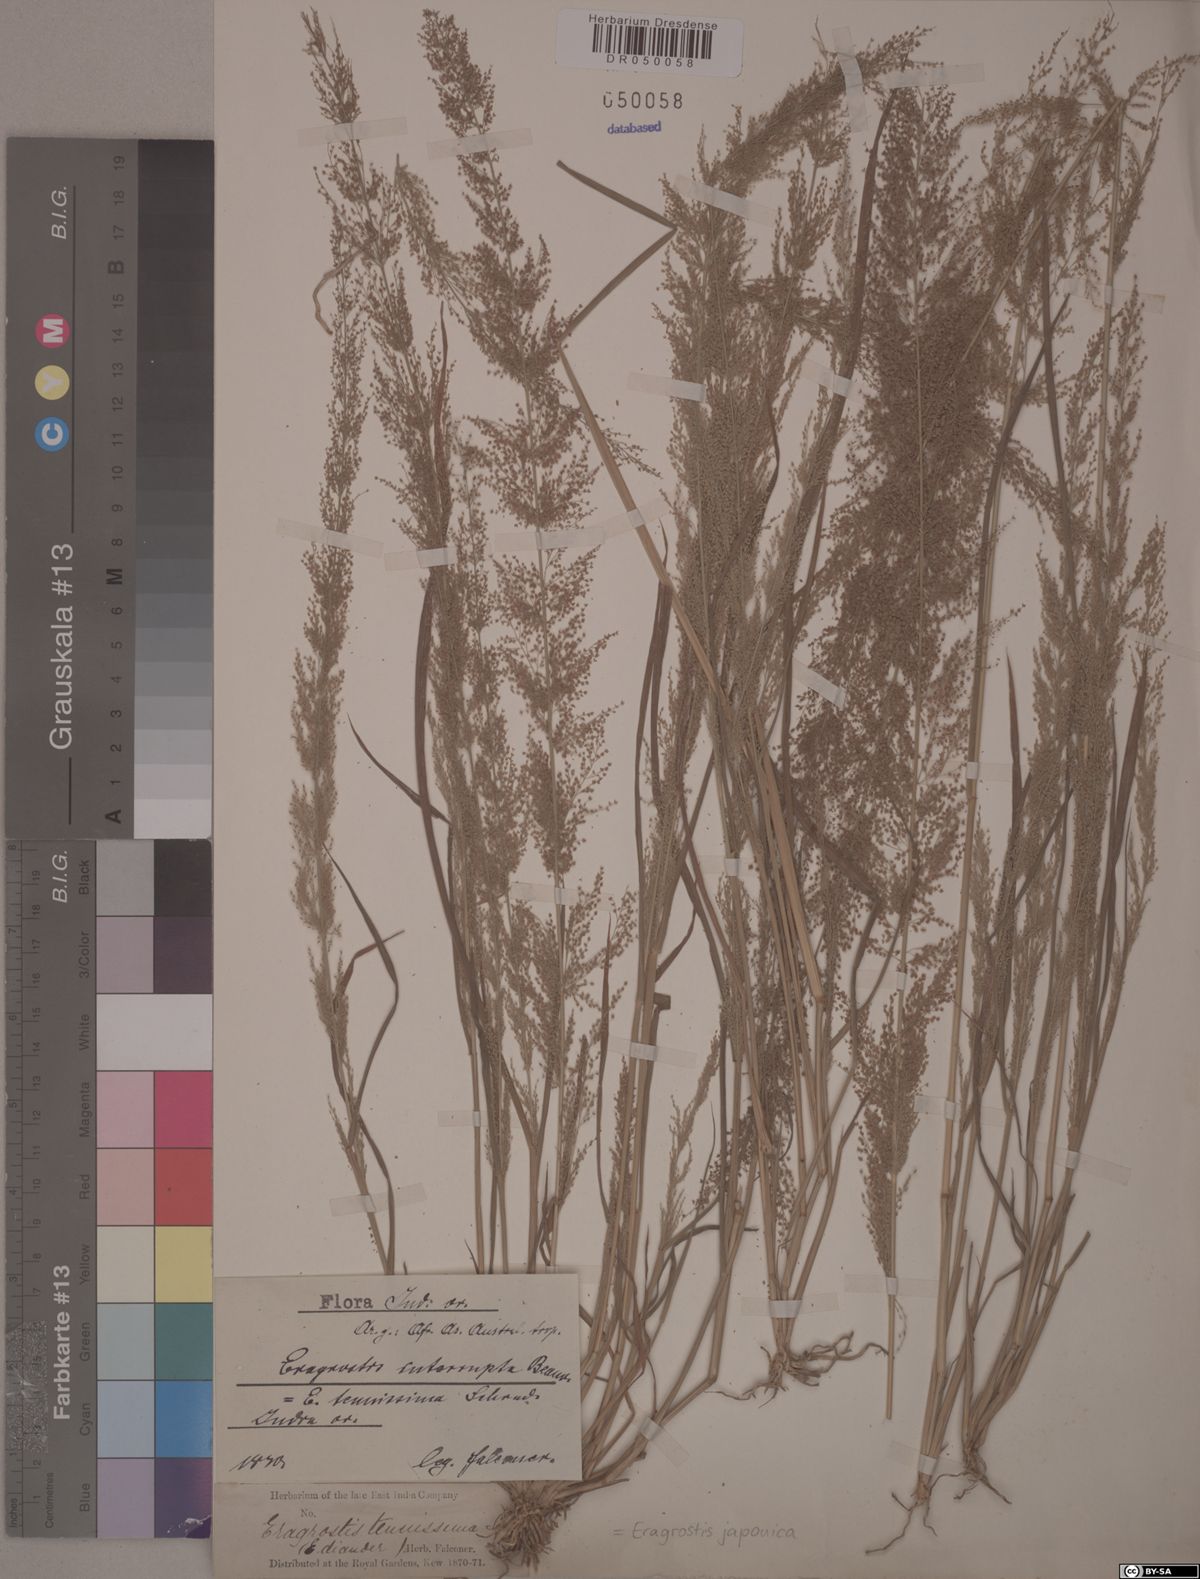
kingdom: Plantae
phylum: Tracheophyta
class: Liliopsida
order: Poales
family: Poaceae
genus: Eragrostis
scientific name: Eragrostis japonica
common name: Pond lovegrass
